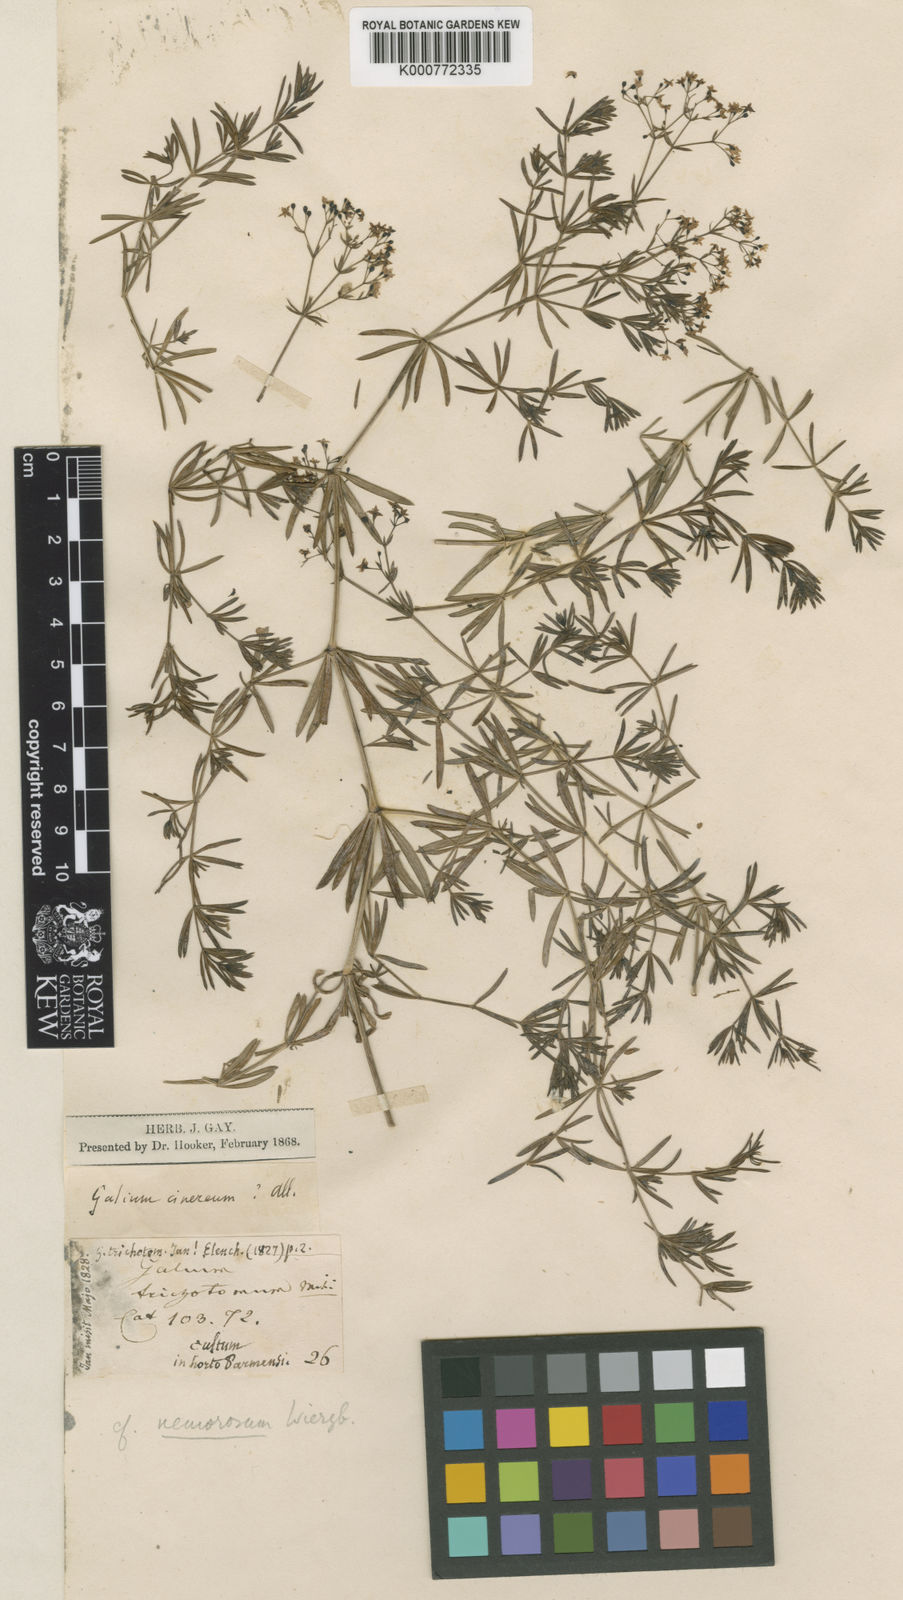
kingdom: Plantae
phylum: Tracheophyta
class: Magnoliopsida
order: Gentianales
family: Rubiaceae
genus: Galium
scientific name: Galium mollugo
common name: Hedge bedstraw
